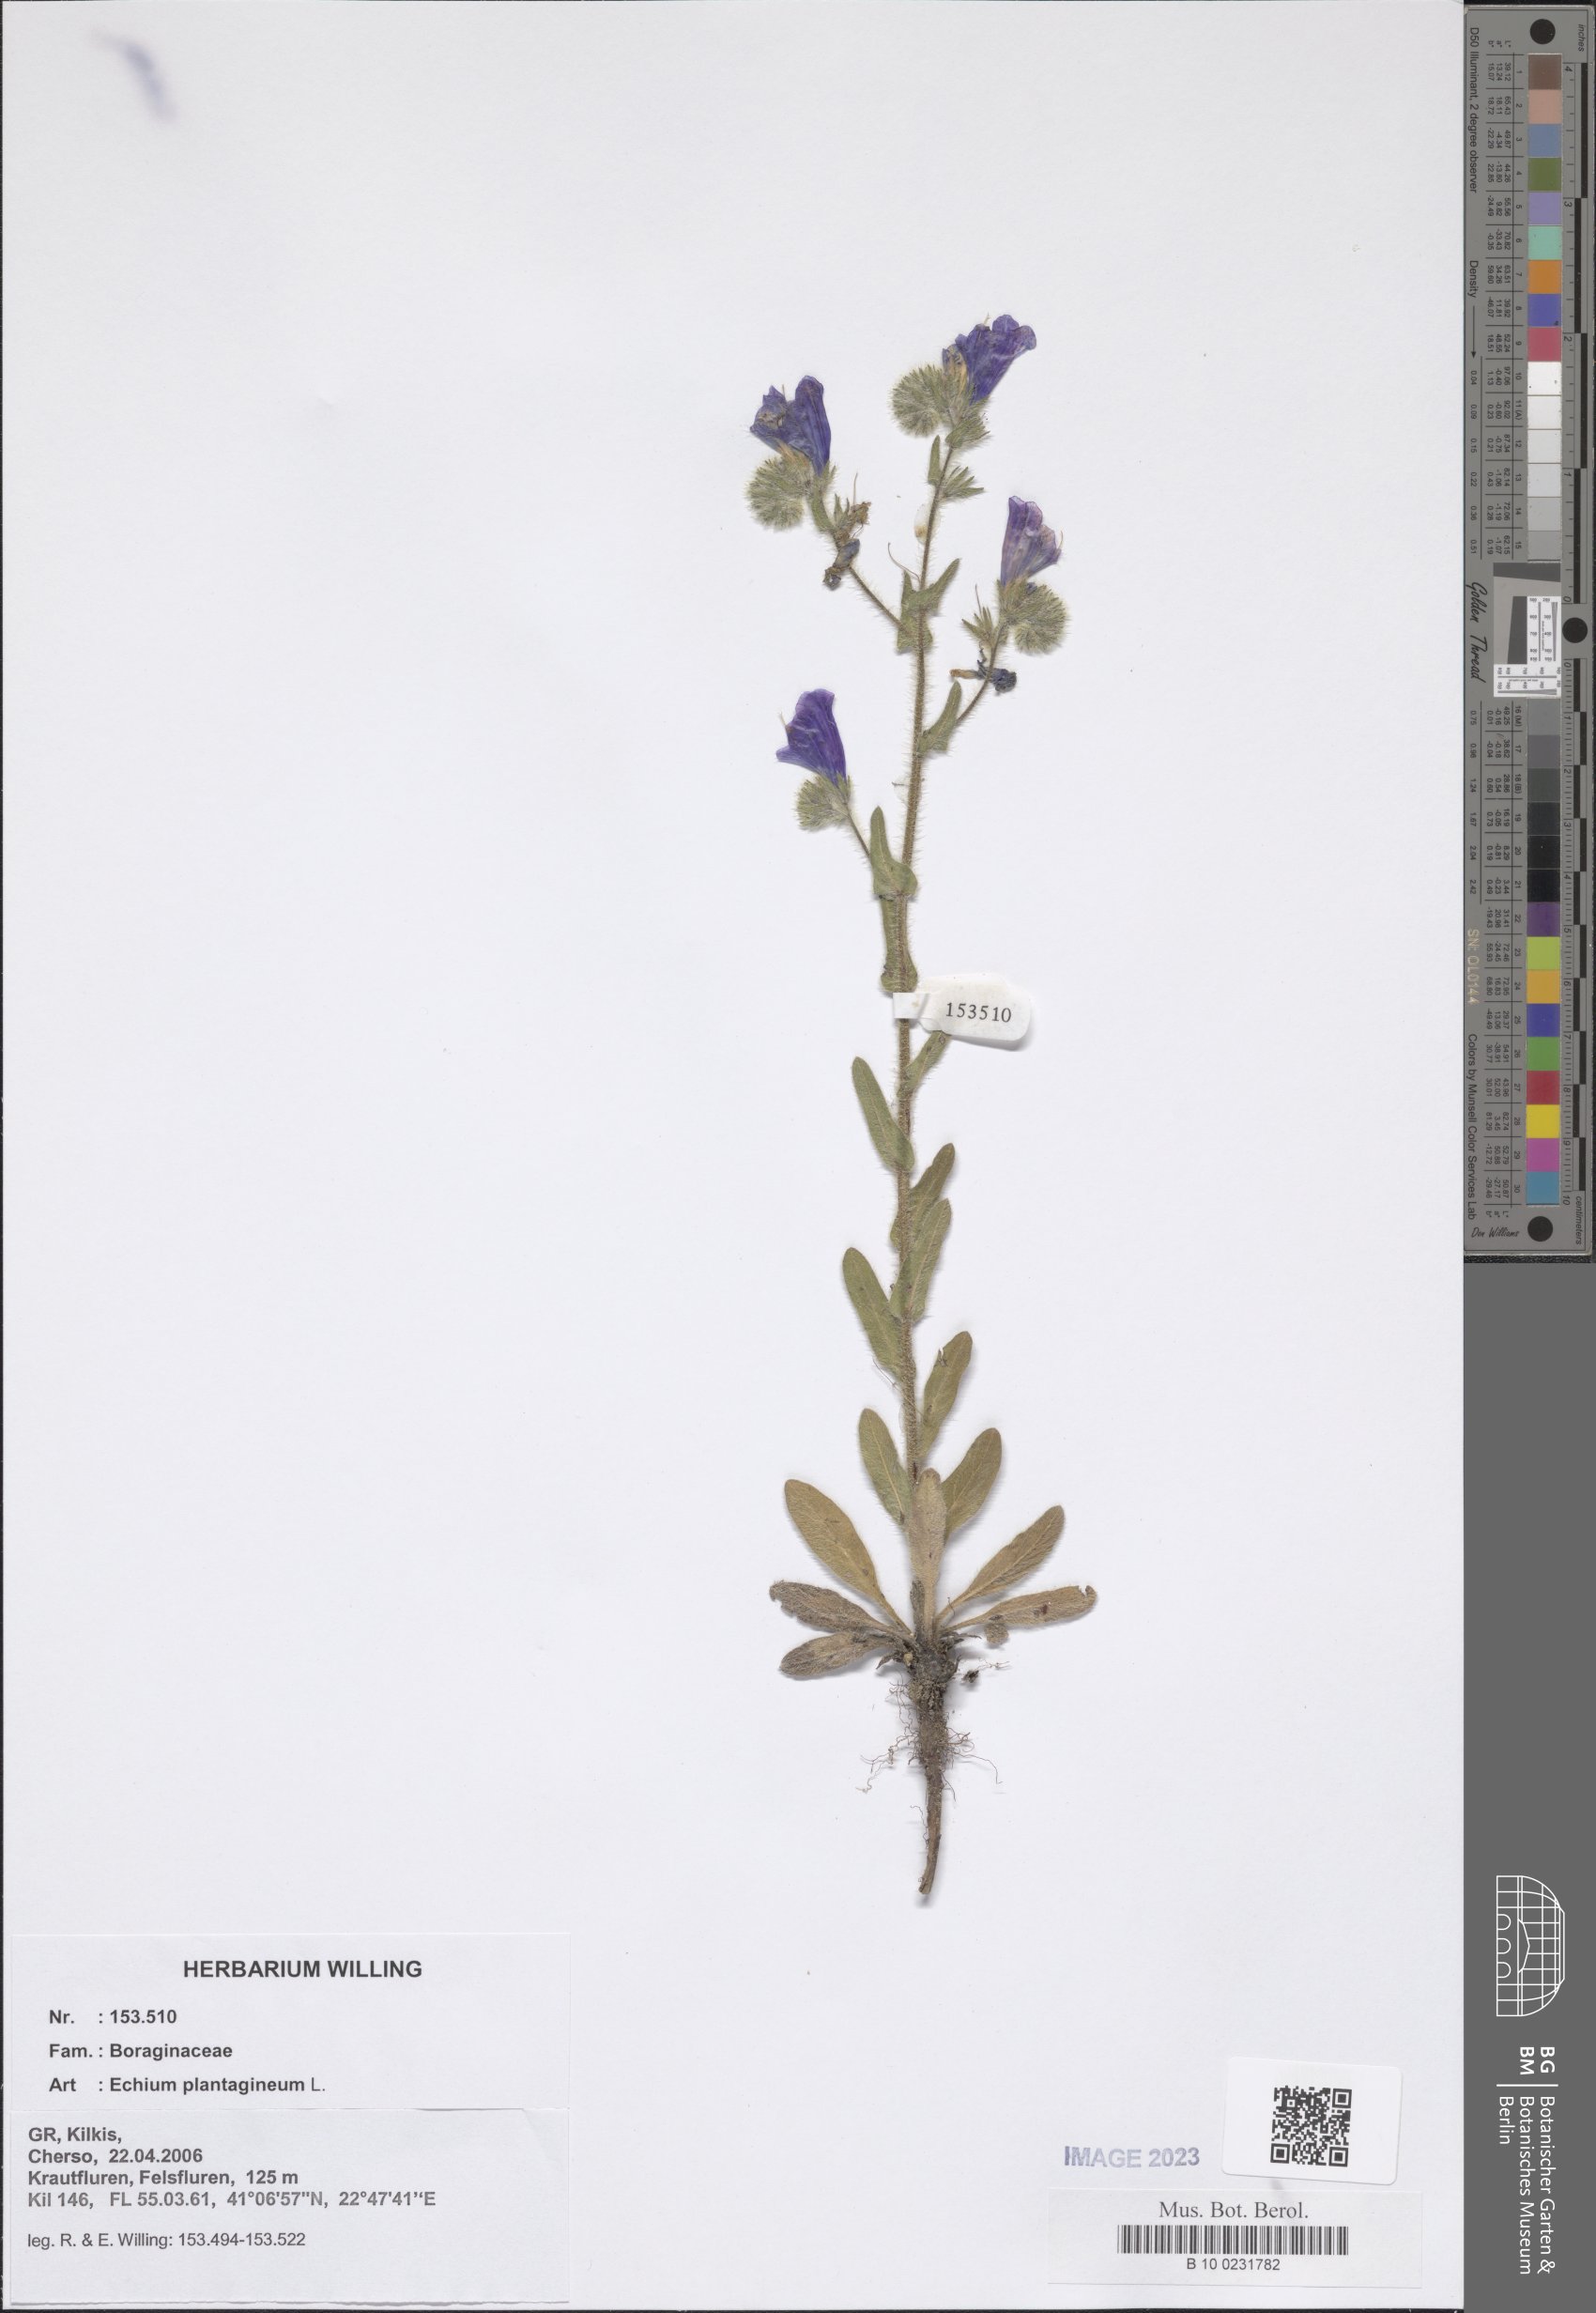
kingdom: Plantae
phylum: Tracheophyta
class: Magnoliopsida
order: Boraginales
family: Boraginaceae
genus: Echium
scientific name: Echium plantagineum
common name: Purple viper's-bugloss
